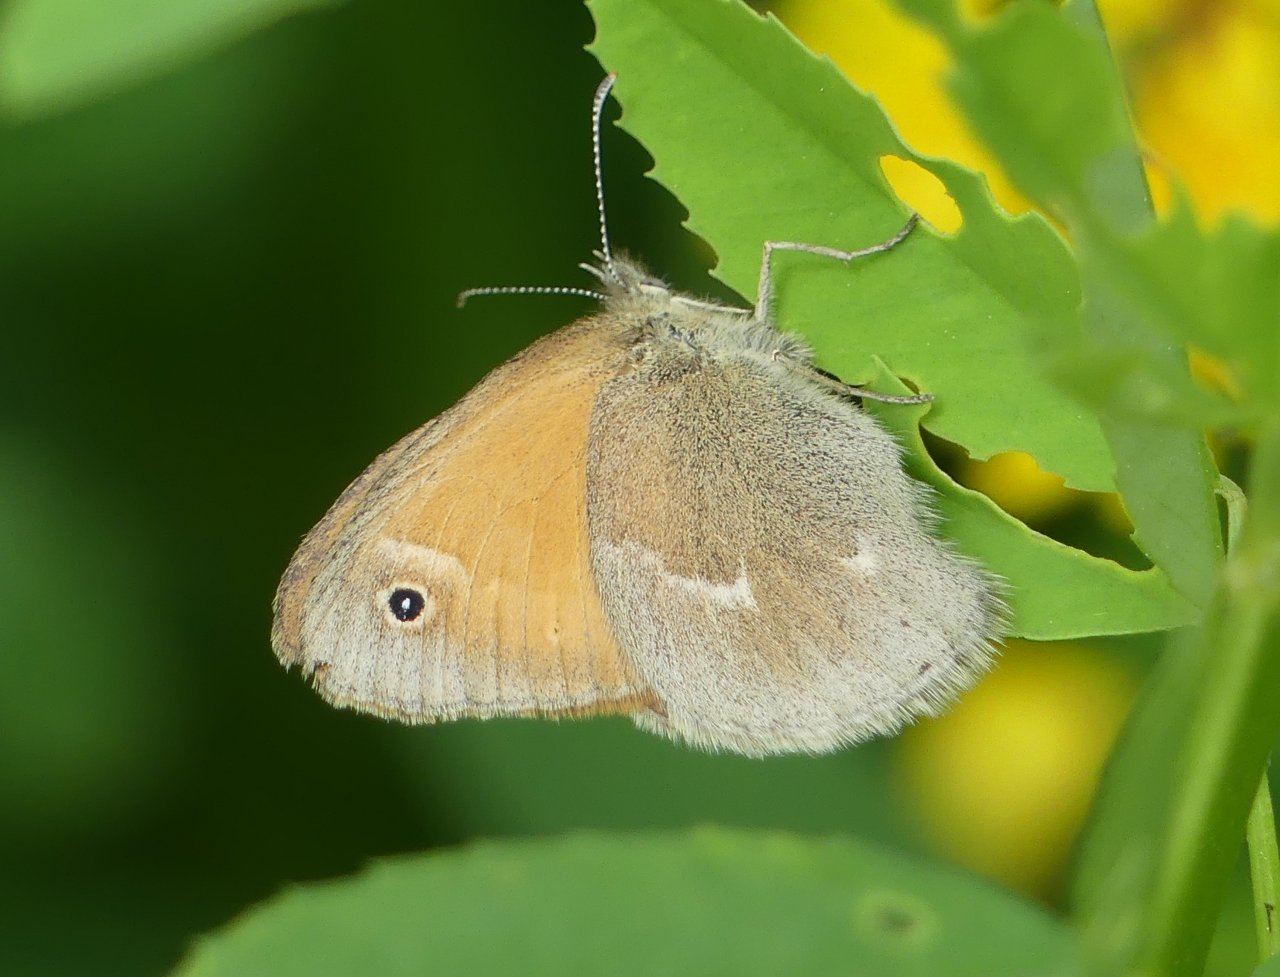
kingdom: Animalia
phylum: Arthropoda
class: Insecta
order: Lepidoptera
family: Nymphalidae
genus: Coenonympha
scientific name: Coenonympha tullia
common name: Large Heath
